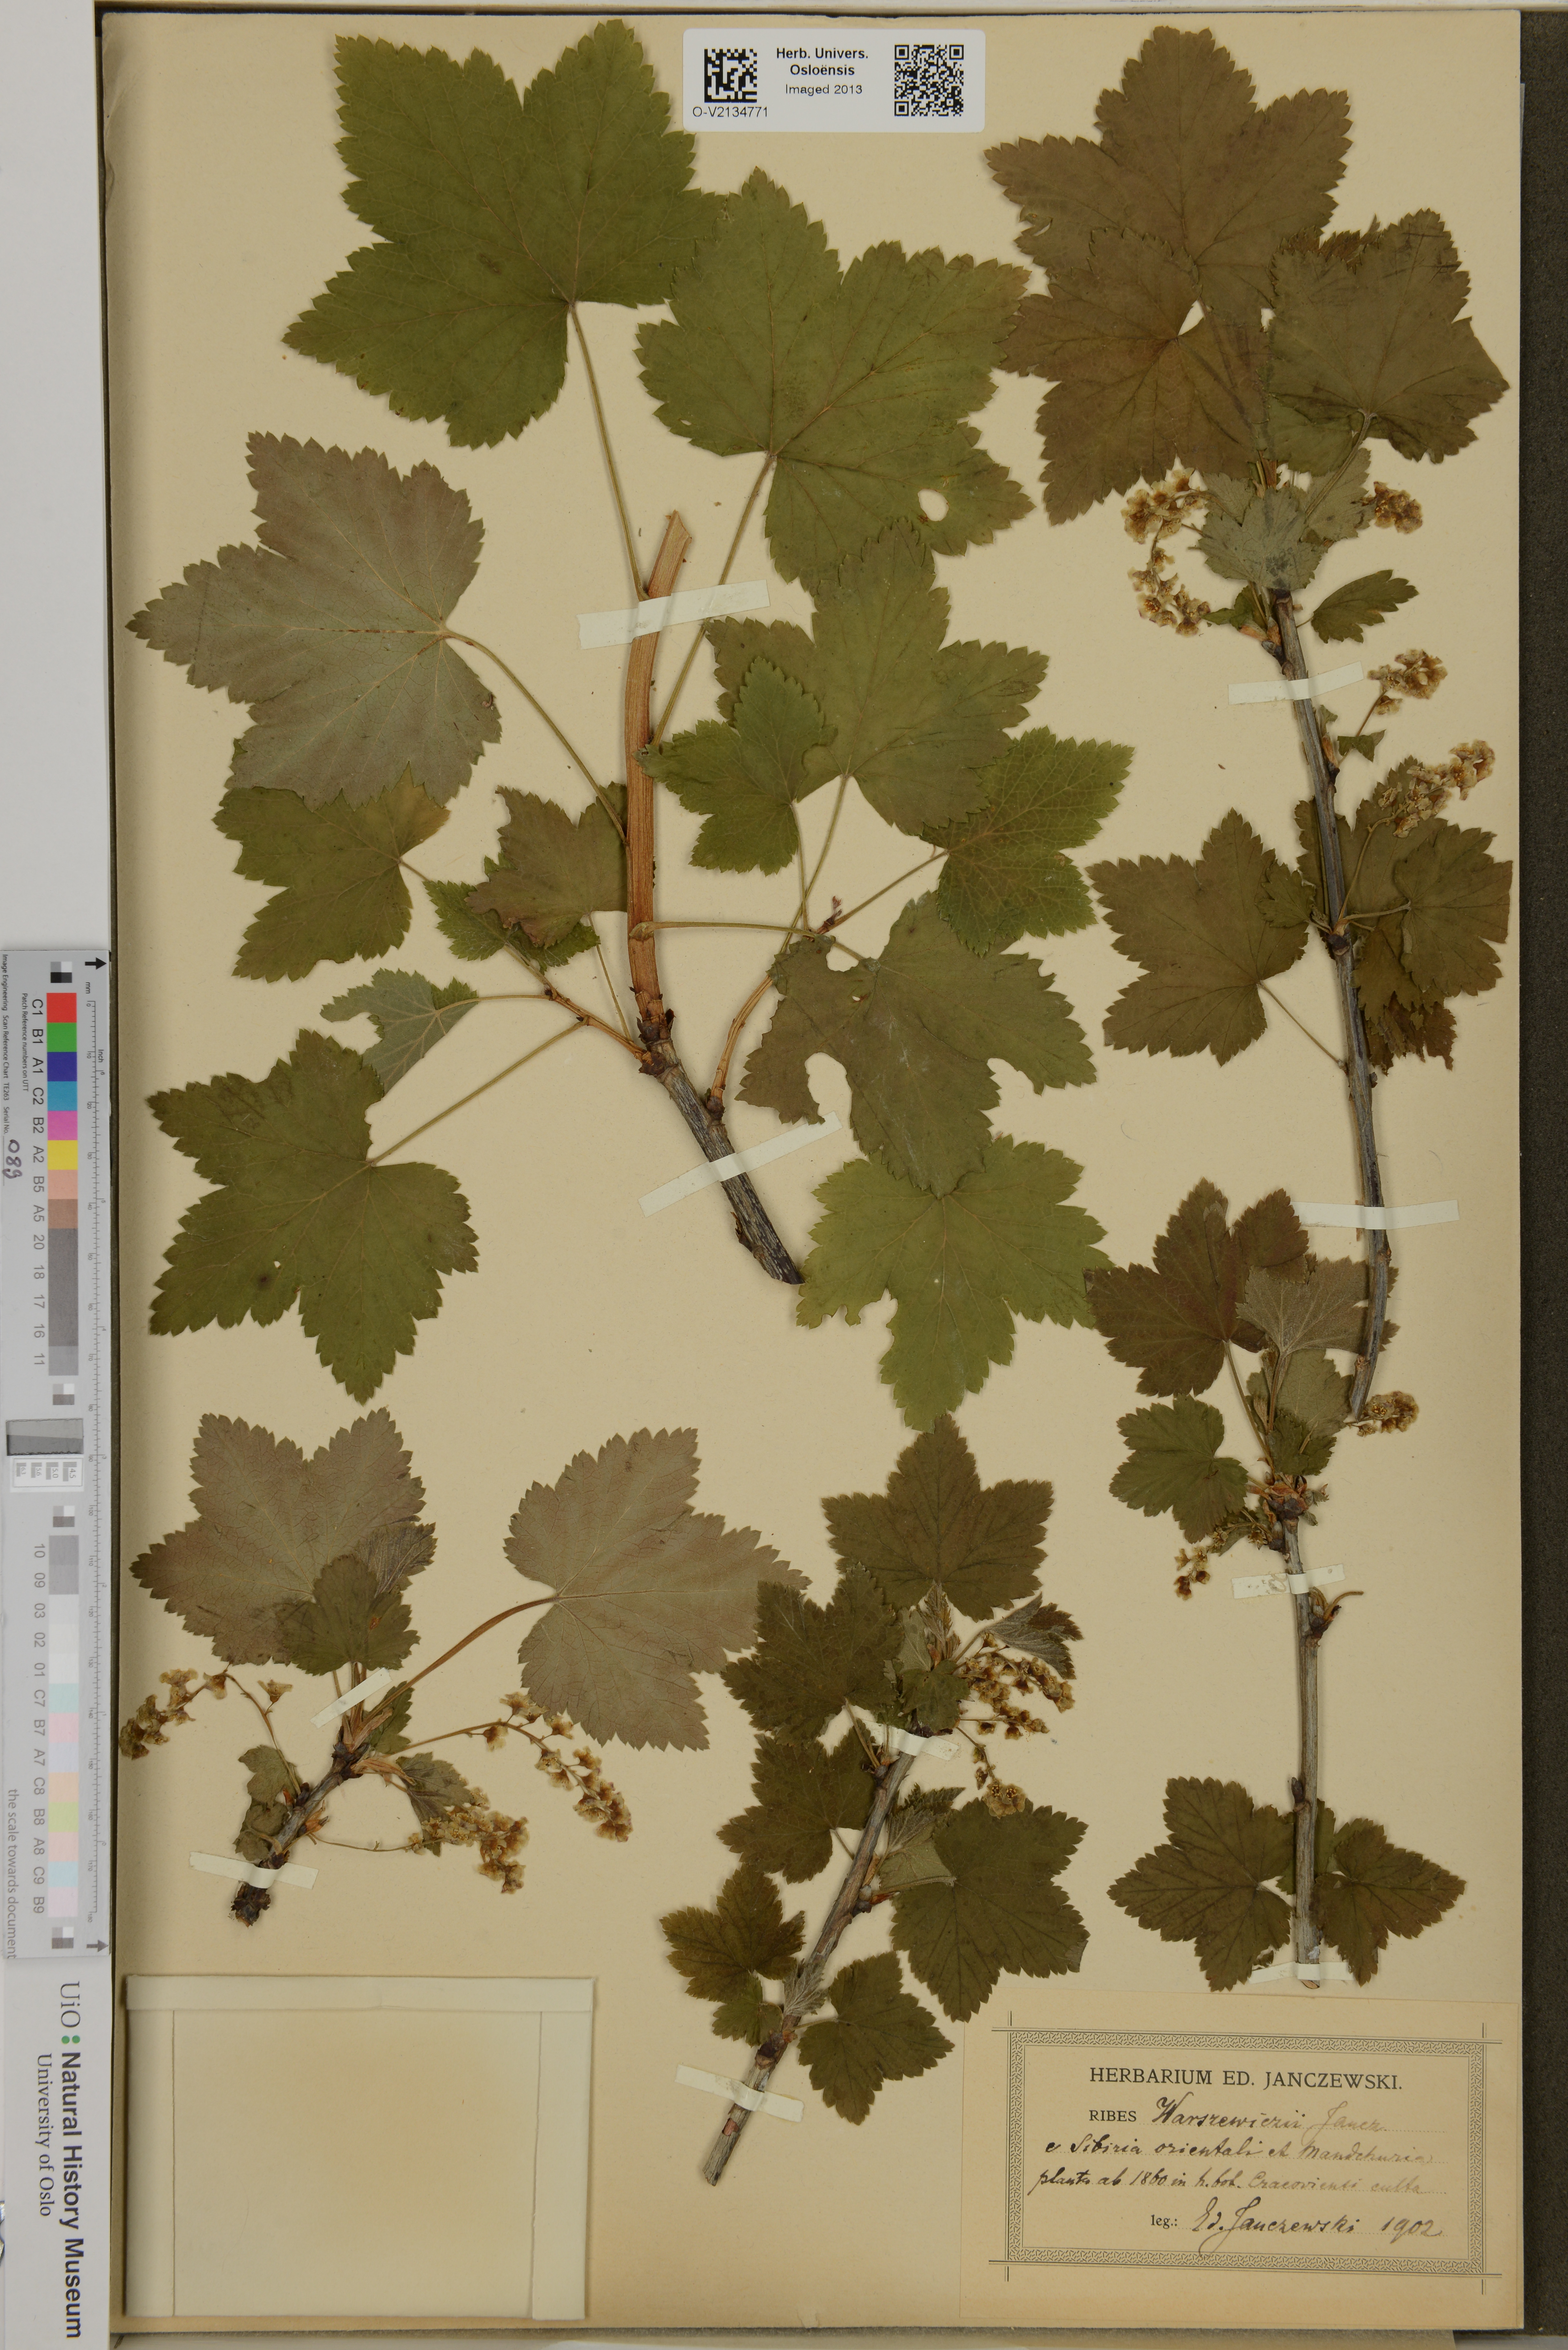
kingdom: Plantae
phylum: Tracheophyta
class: Magnoliopsida
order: Saxifragales
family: Grossulariaceae
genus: Ribes
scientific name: Ribes triste
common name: Swamp red currant
